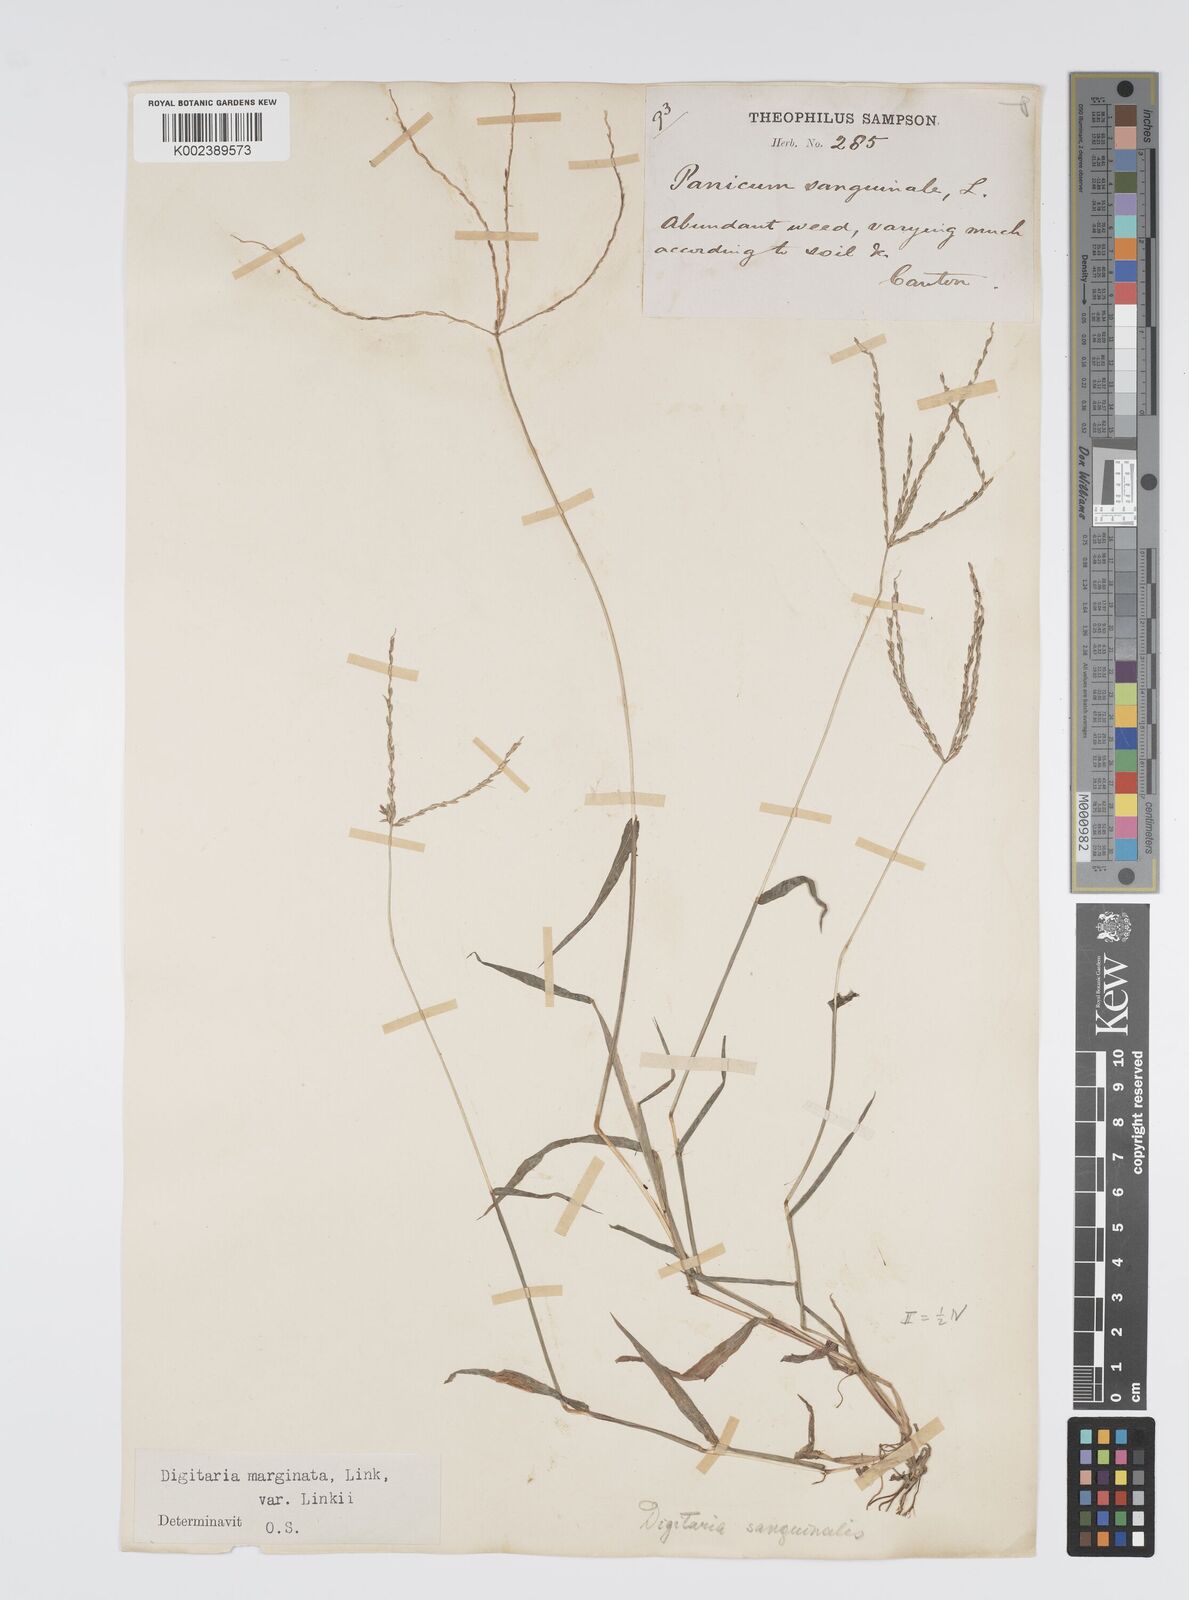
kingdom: Plantae
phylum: Tracheophyta
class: Liliopsida
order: Poales
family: Poaceae
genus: Digitaria
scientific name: Digitaria ciliaris
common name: Tropical finger-grass
